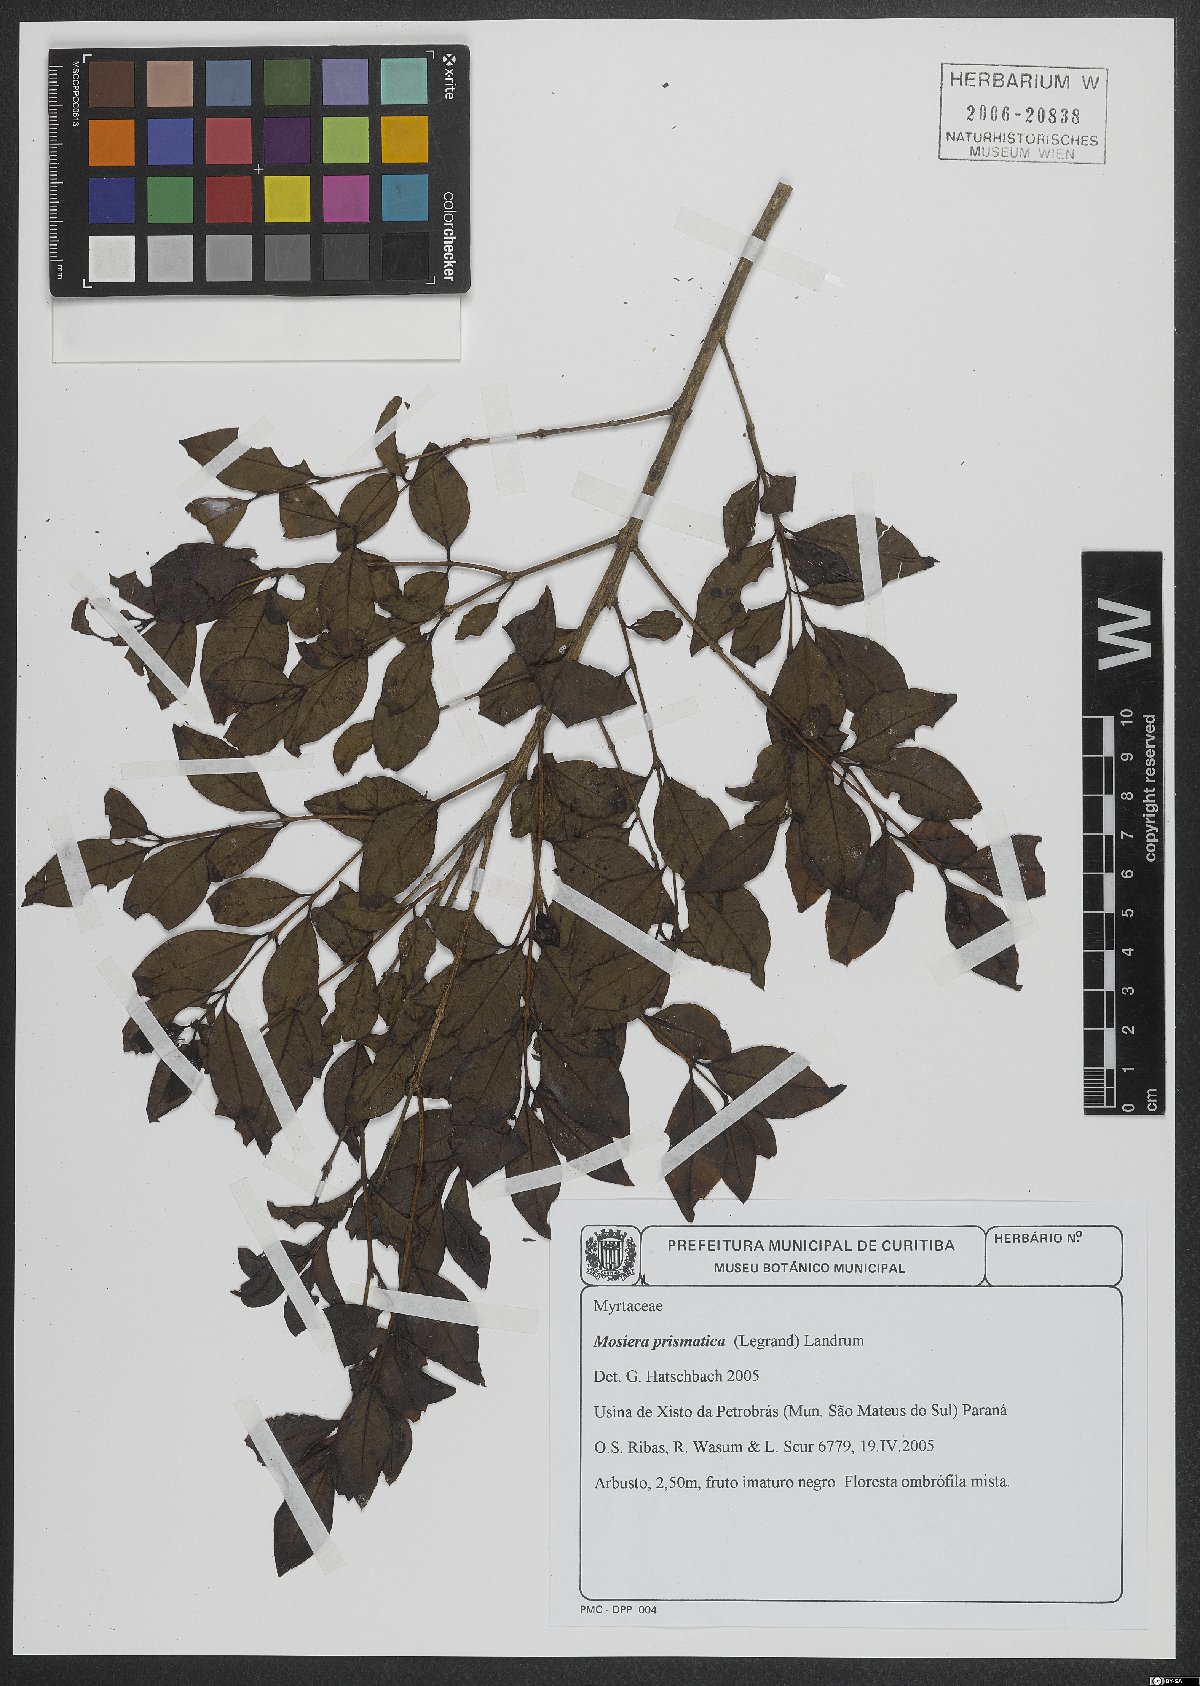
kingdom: Plantae
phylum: Tracheophyta
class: Magnoliopsida
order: Myrtales
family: Myrtaceae
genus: Curitiba
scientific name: Curitiba prismatica
